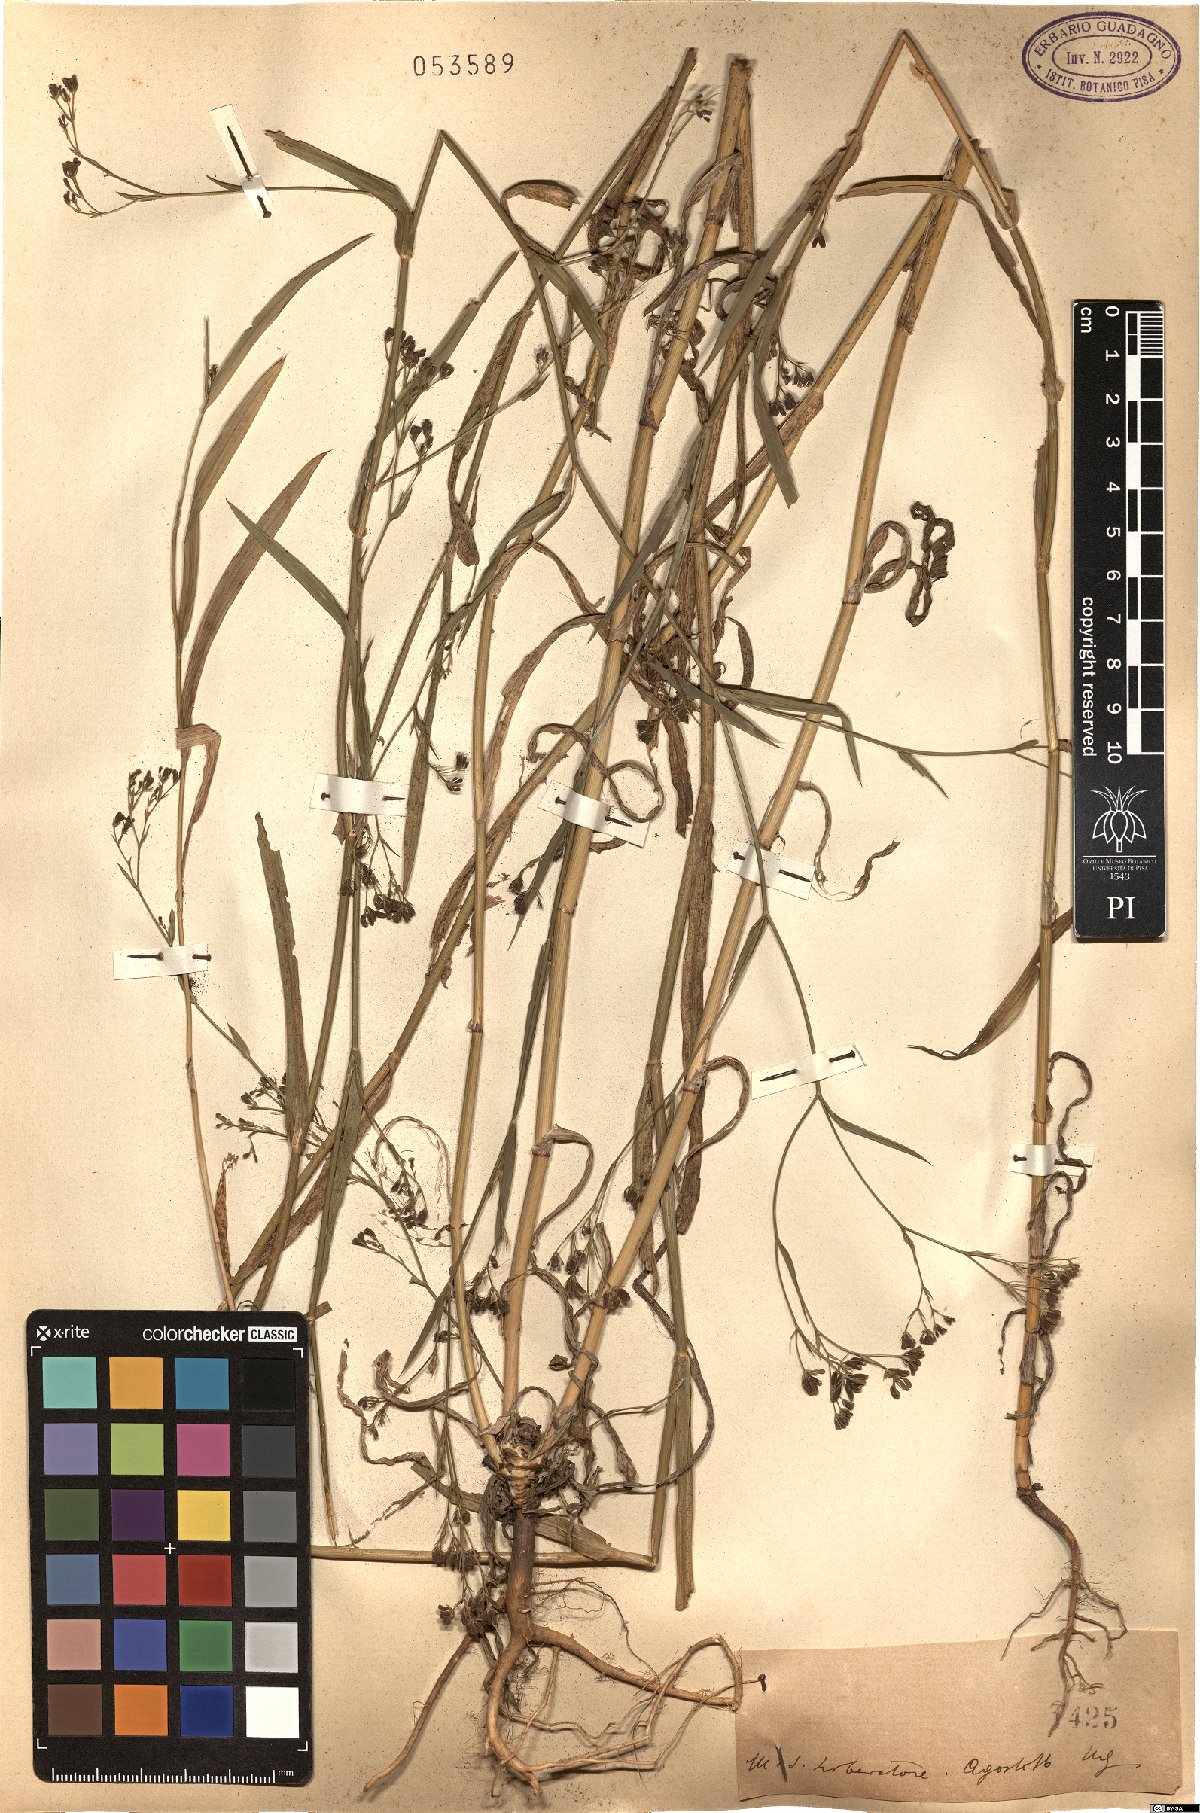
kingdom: Plantae
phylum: Tracheophyta
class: Magnoliopsida
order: Apiales
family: Apiaceae
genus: Bupleurum
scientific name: Bupleurum
